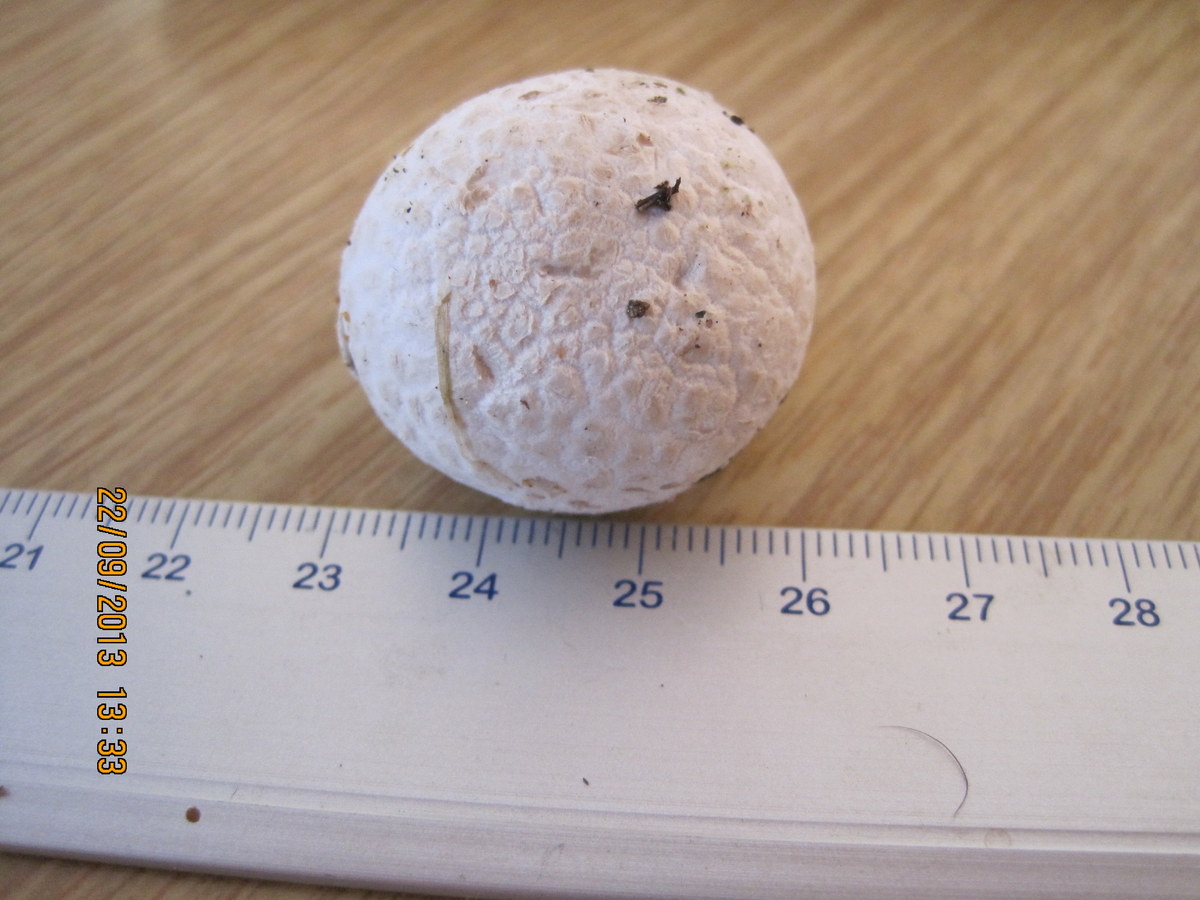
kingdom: Fungi
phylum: Basidiomycota
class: Agaricomycetes
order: Agaricales
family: Lycoperdaceae
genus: Bovista
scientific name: Bovista nigrescens
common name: sortagtig bovist
